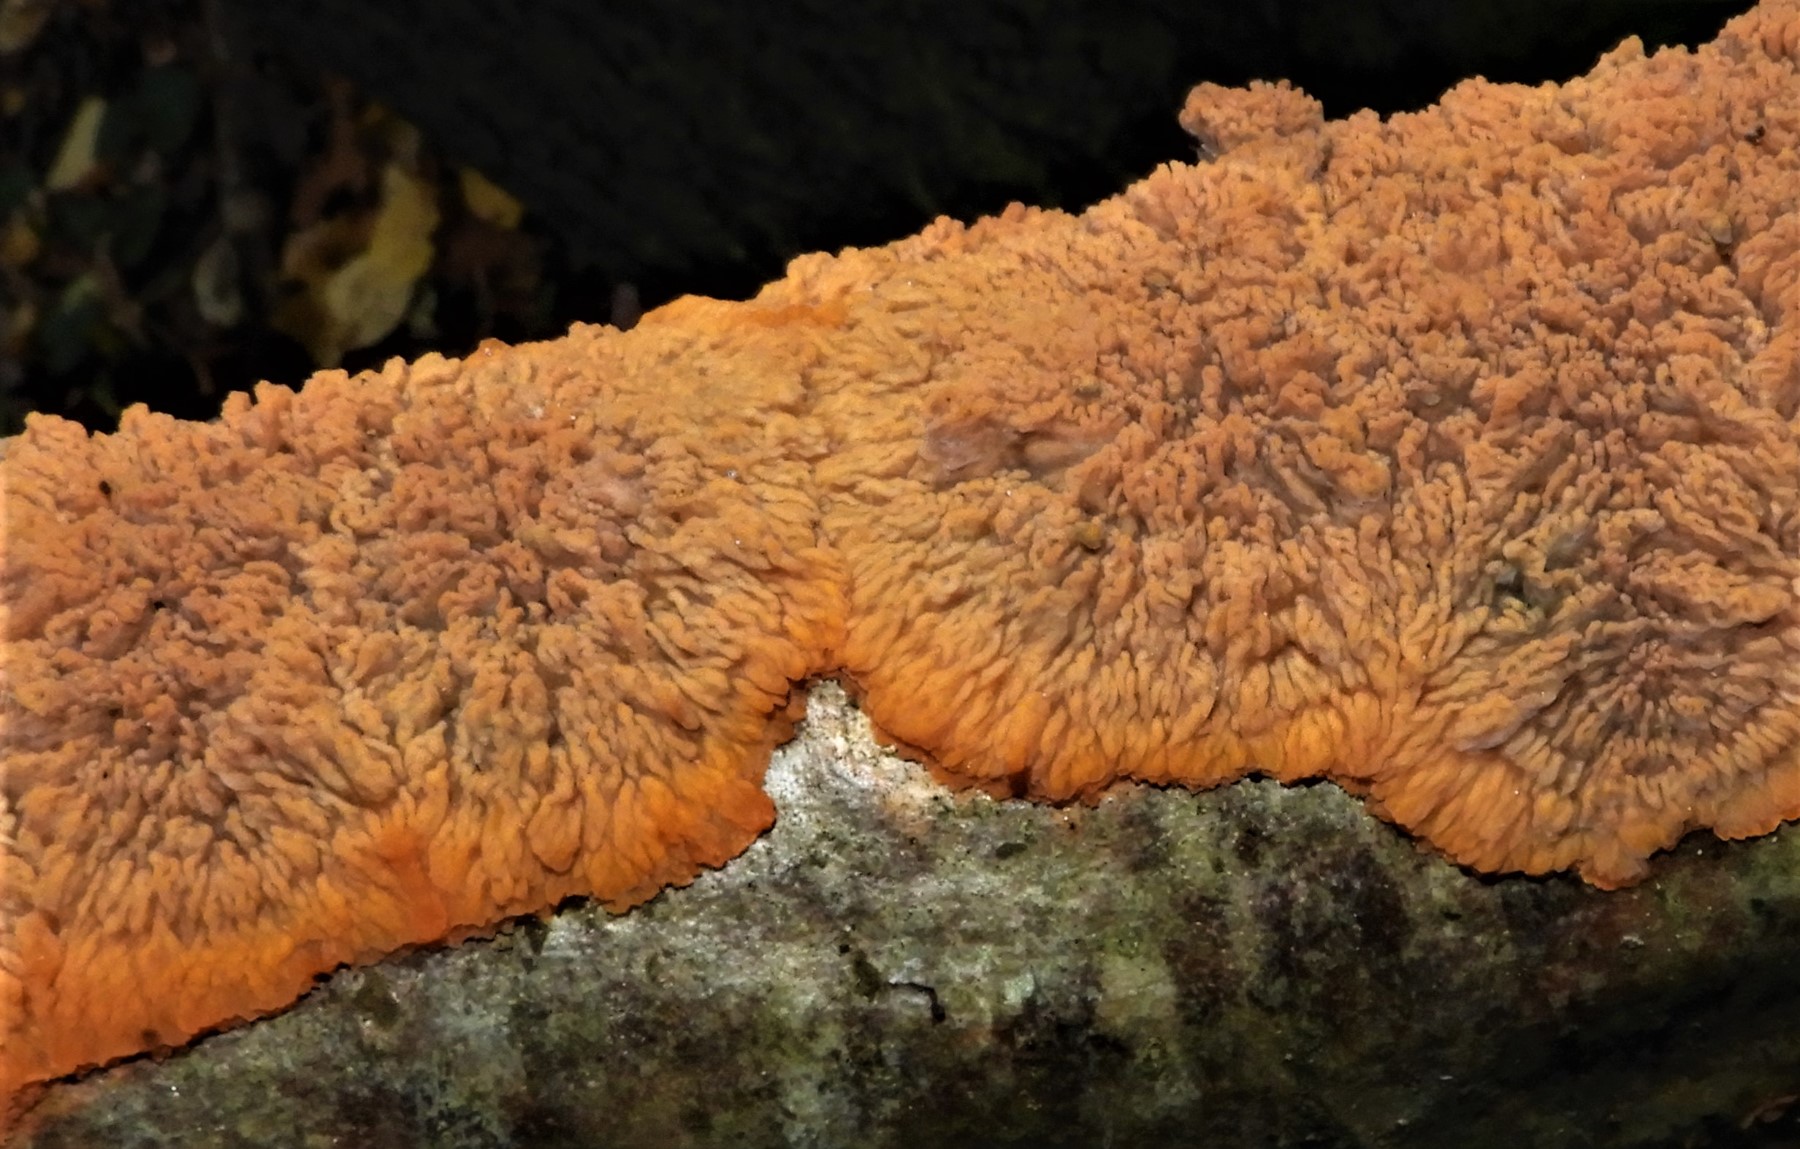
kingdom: Fungi
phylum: Basidiomycota
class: Agaricomycetes
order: Polyporales
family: Meruliaceae
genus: Phlebia
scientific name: Phlebia radiata
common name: stråle-åresvamp
